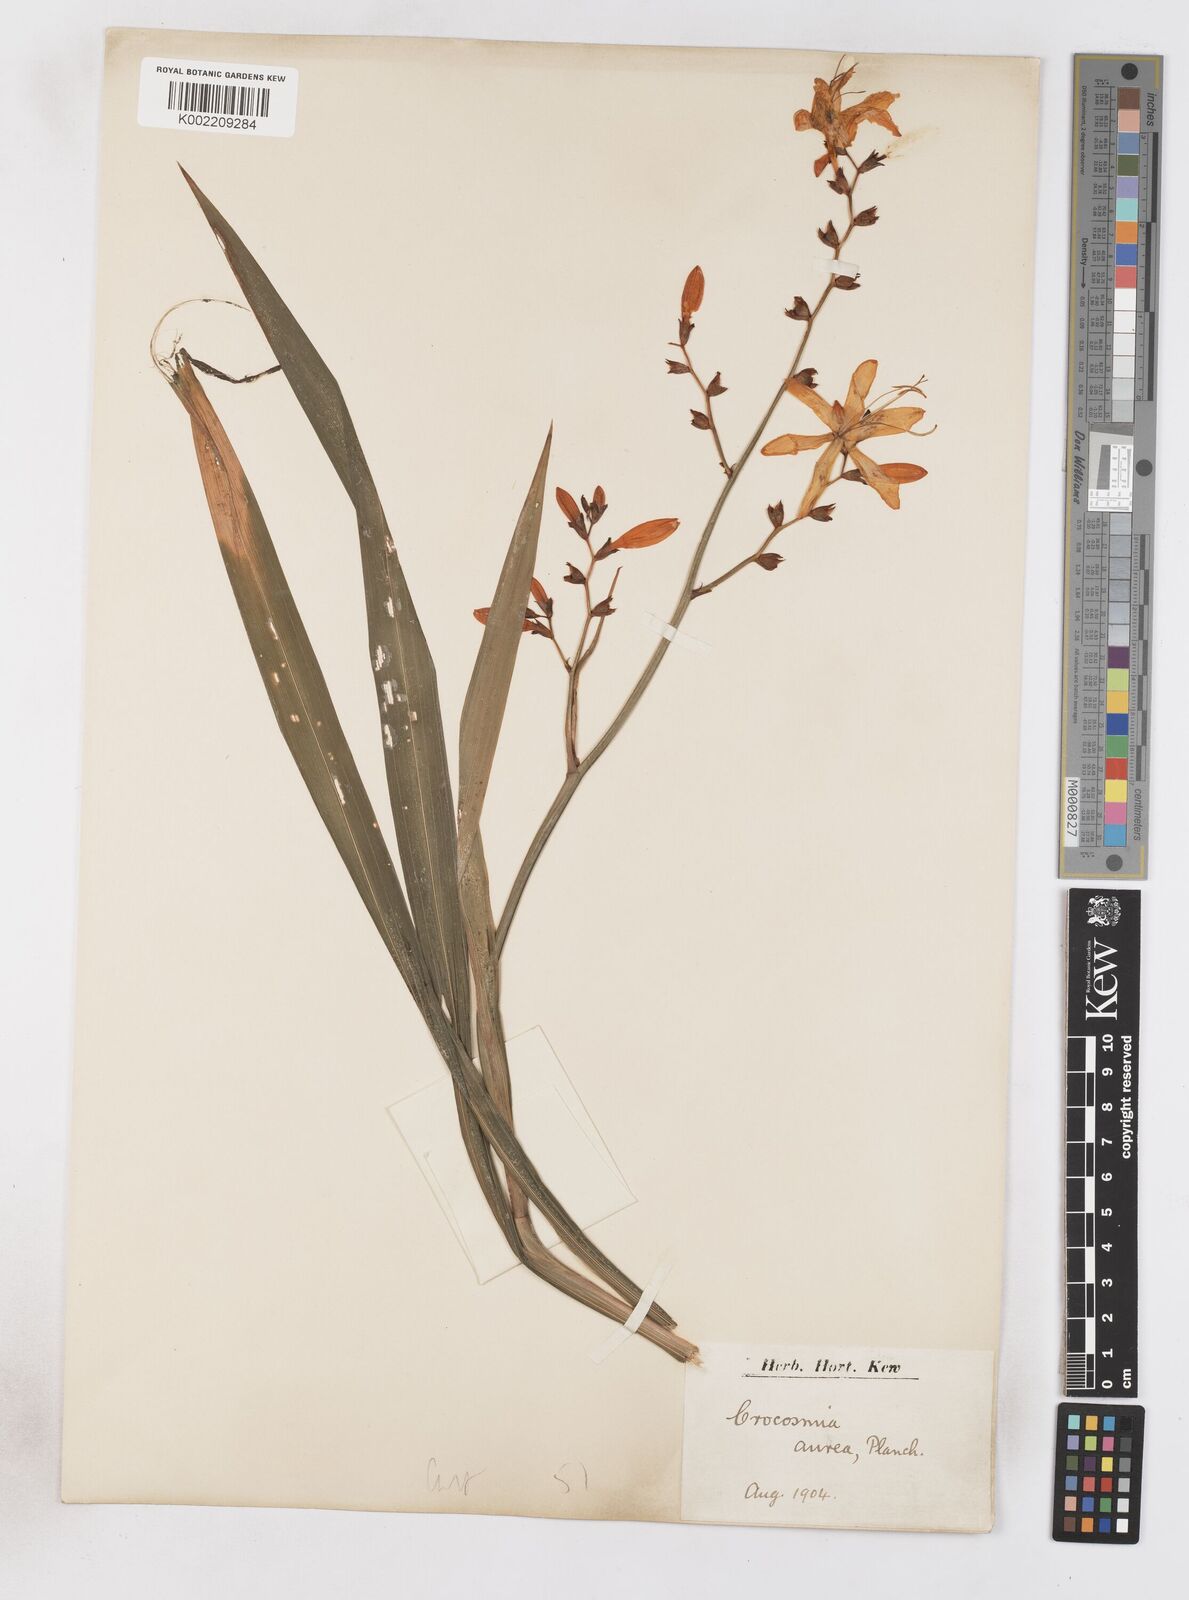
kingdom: Plantae
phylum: Tracheophyta
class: Liliopsida
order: Asparagales
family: Iridaceae
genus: Crocosmia
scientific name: Crocosmia aurea
